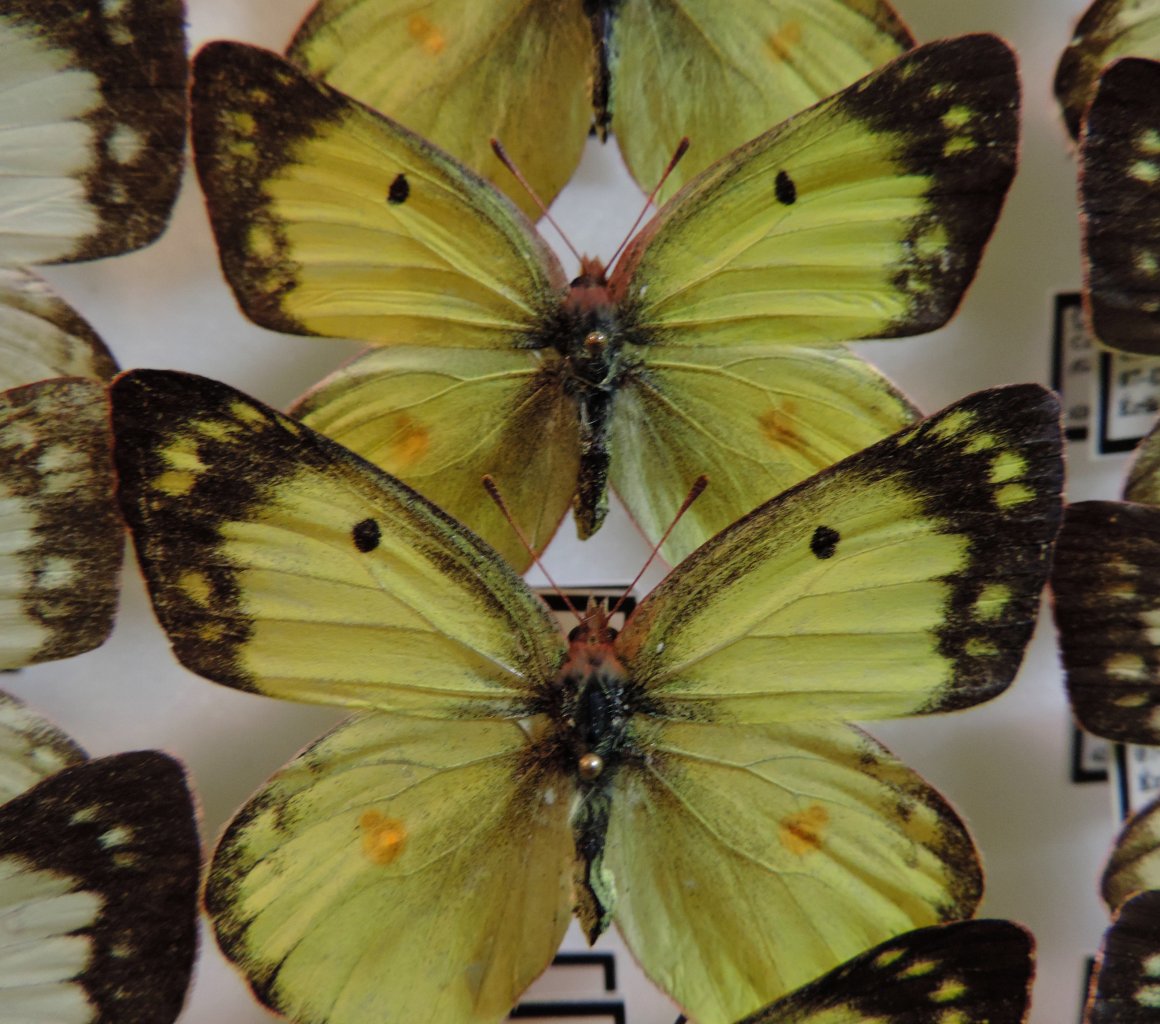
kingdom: Animalia
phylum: Arthropoda
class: Insecta
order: Lepidoptera
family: Pieridae
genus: Colias
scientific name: Colias philodice
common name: Clouded Sulphur
